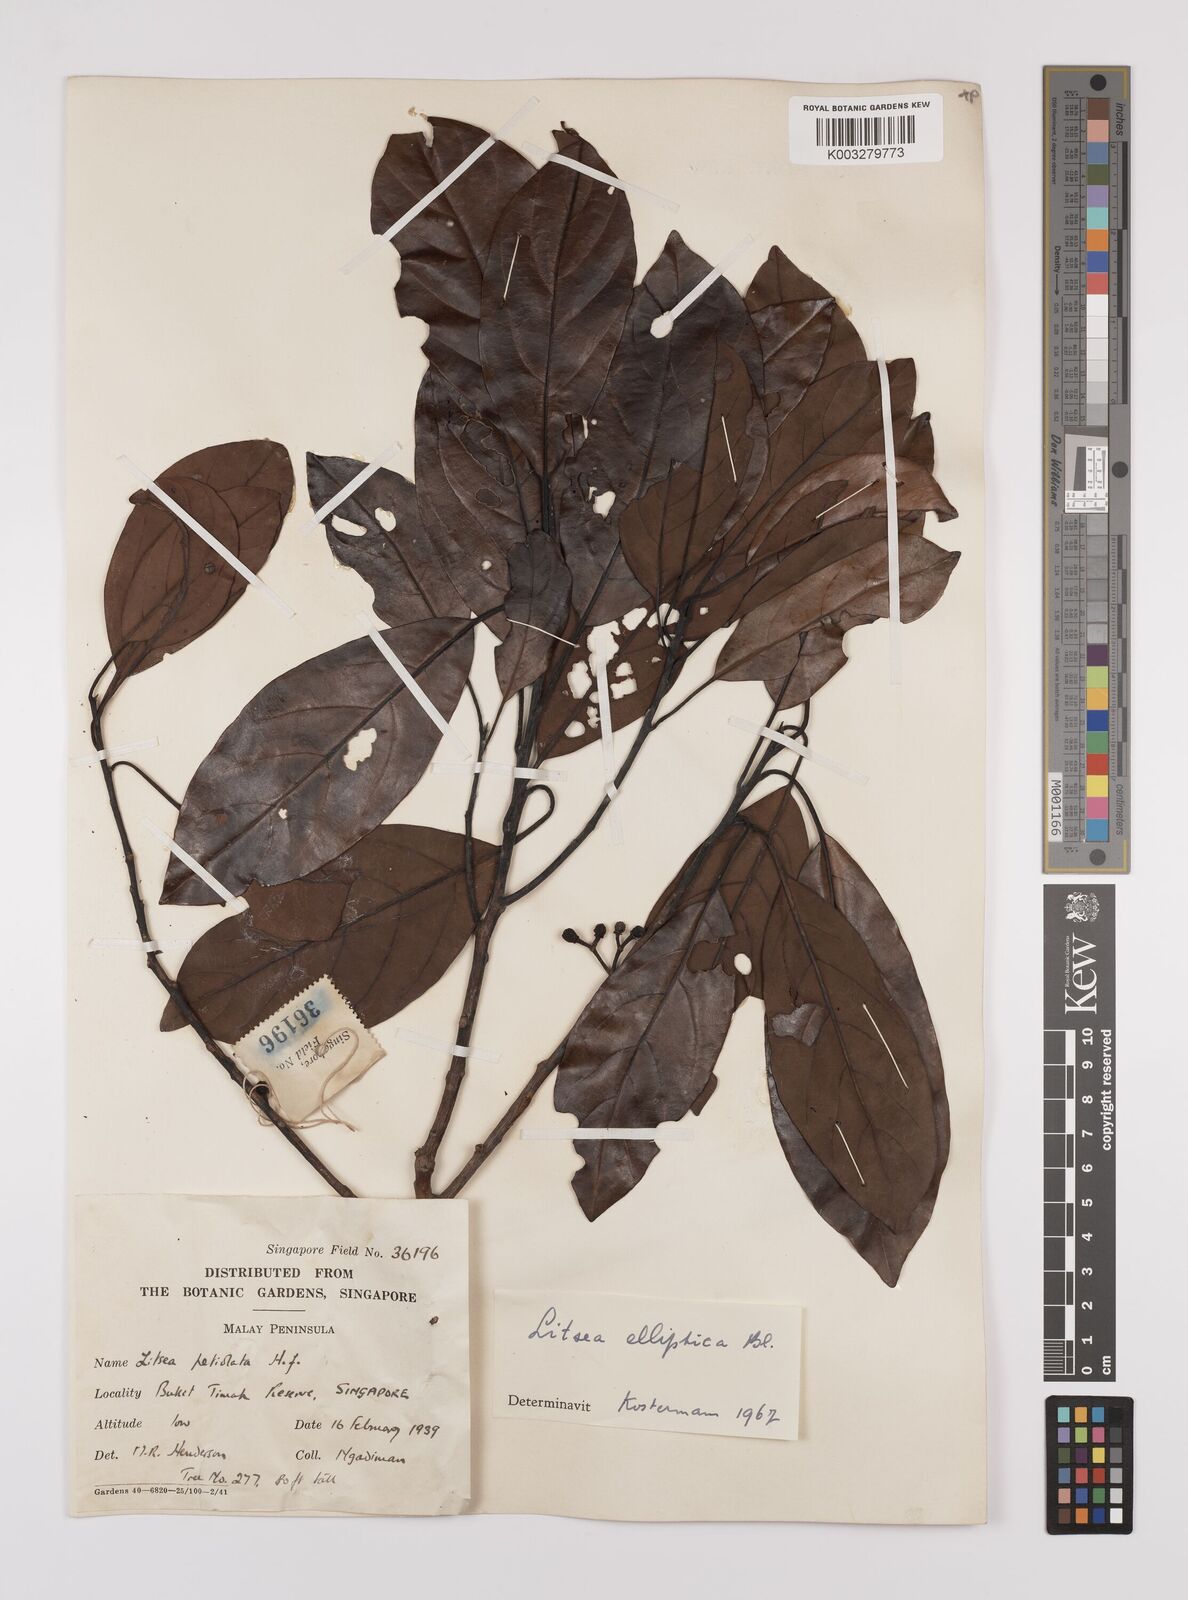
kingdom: Plantae
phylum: Tracheophyta
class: Magnoliopsida
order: Laurales
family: Lauraceae
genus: Litsea
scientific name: Litsea elliptica
